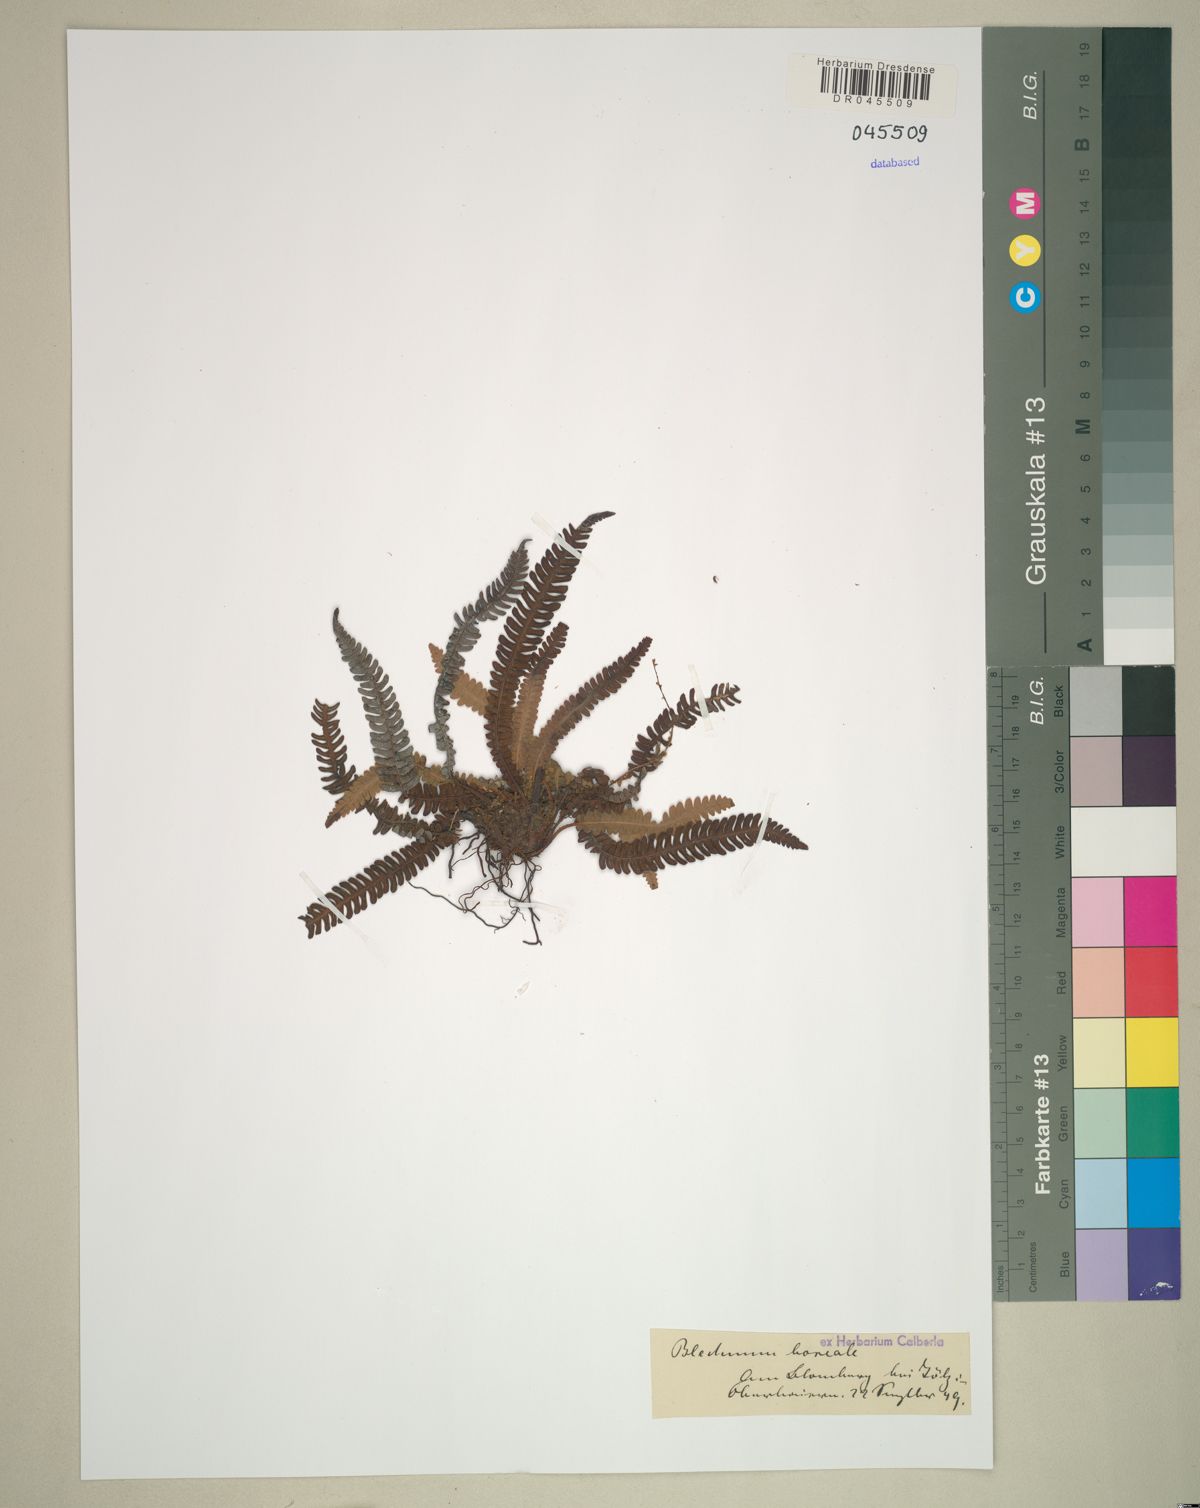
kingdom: Plantae
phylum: Tracheophyta
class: Polypodiopsida
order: Polypodiales
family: Blechnaceae
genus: Struthiopteris
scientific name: Struthiopteris spicant
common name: Deer fern
